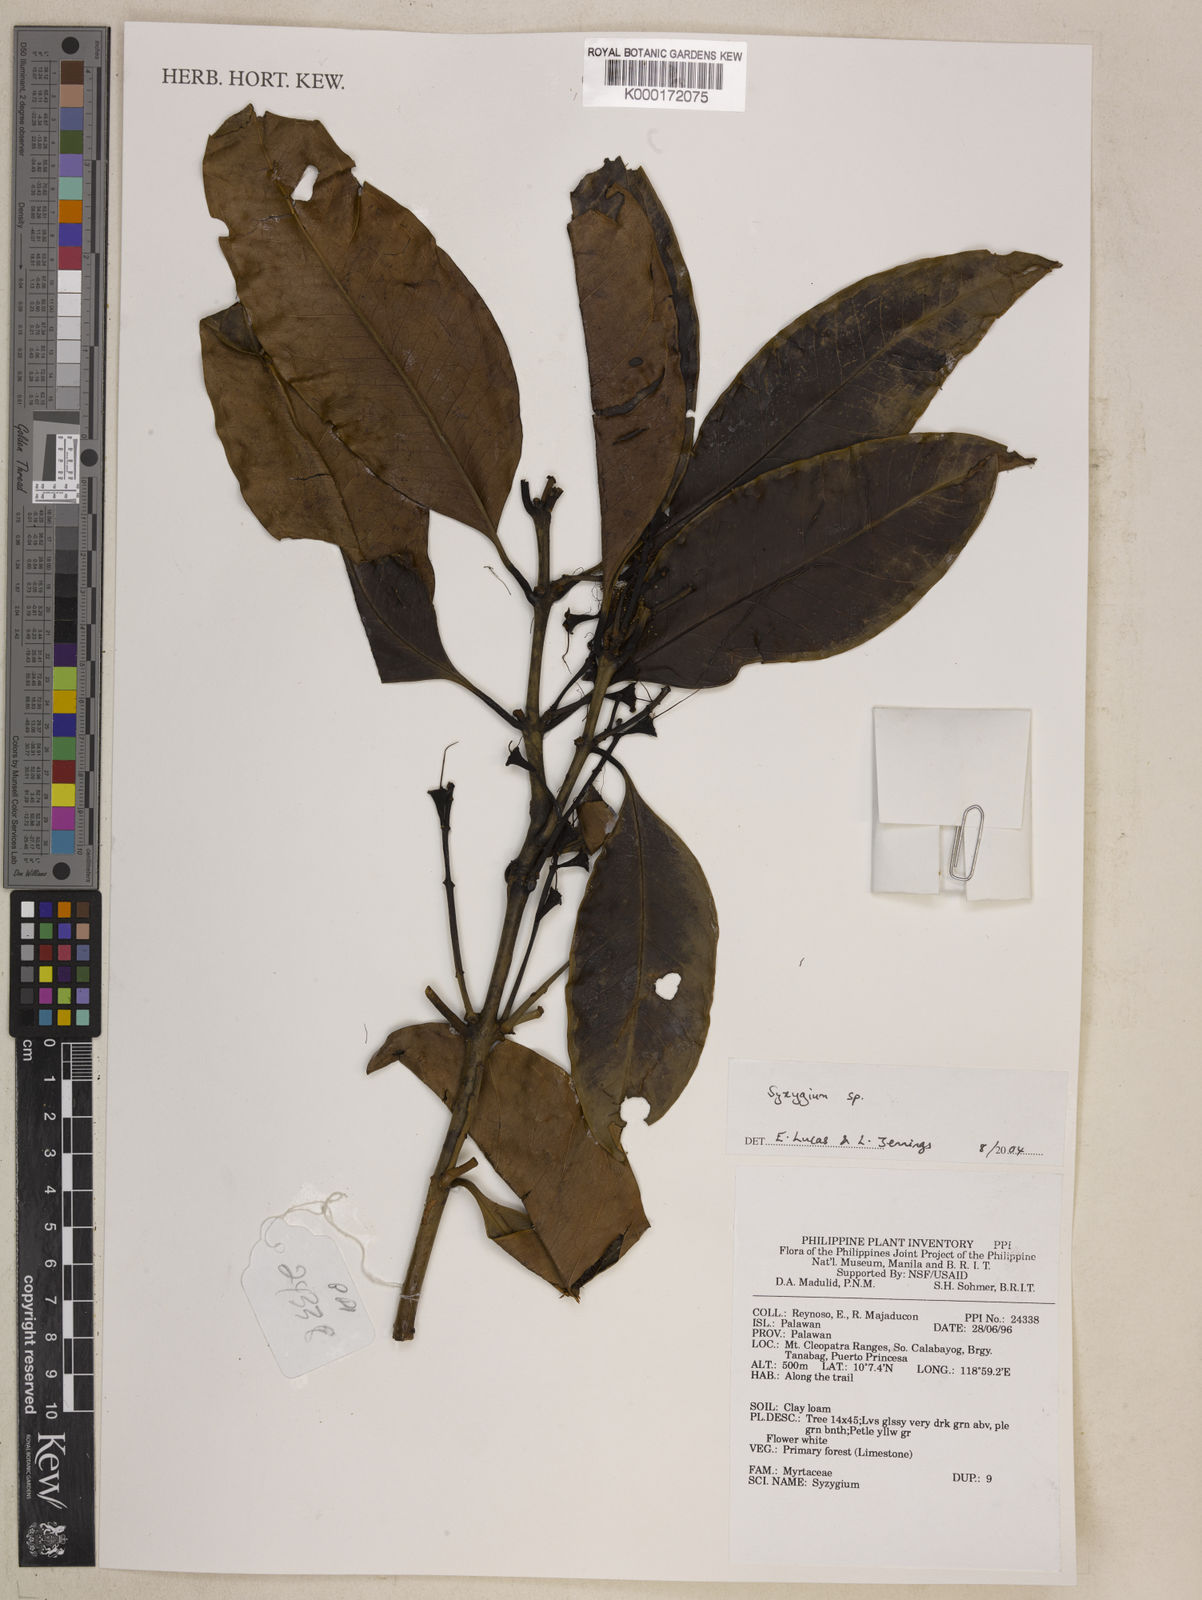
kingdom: Plantae
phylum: Tracheophyta
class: Magnoliopsida
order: Myrtales
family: Myrtaceae
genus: Syzygium
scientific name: Syzygium
